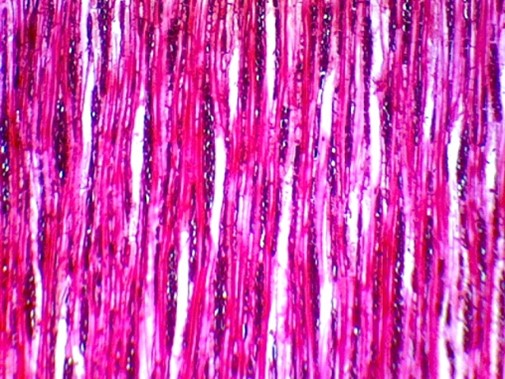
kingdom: Plantae
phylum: Tracheophyta
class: Magnoliopsida
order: Berberidopsidales
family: Aextoxicaceae
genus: Aextoxicon
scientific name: Aextoxicon punctatum
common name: Olivillo
